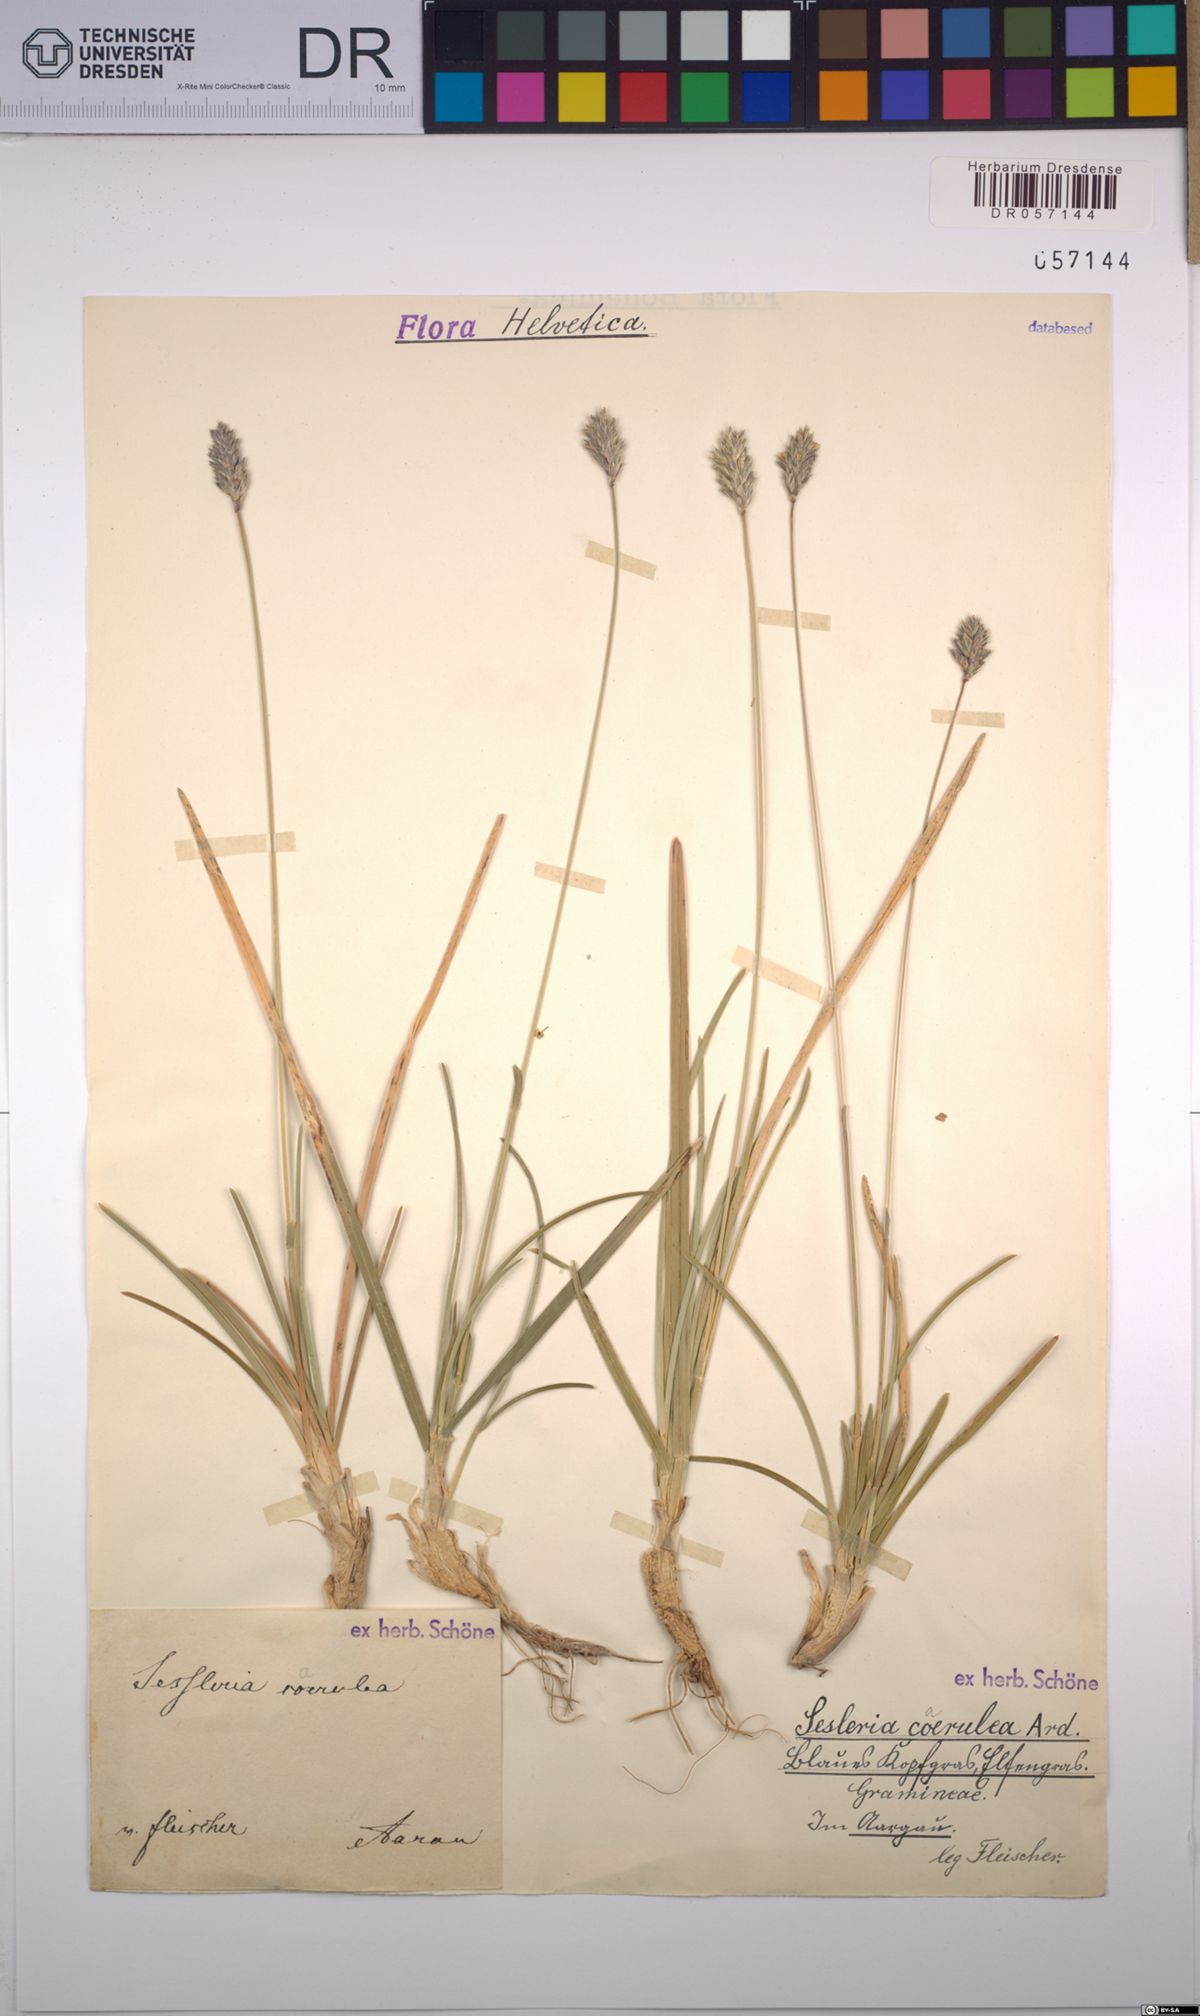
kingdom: Plantae
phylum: Tracheophyta
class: Liliopsida
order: Poales
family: Poaceae
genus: Sesleria
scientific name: Sesleria caerulea
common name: Blue moor-grass
